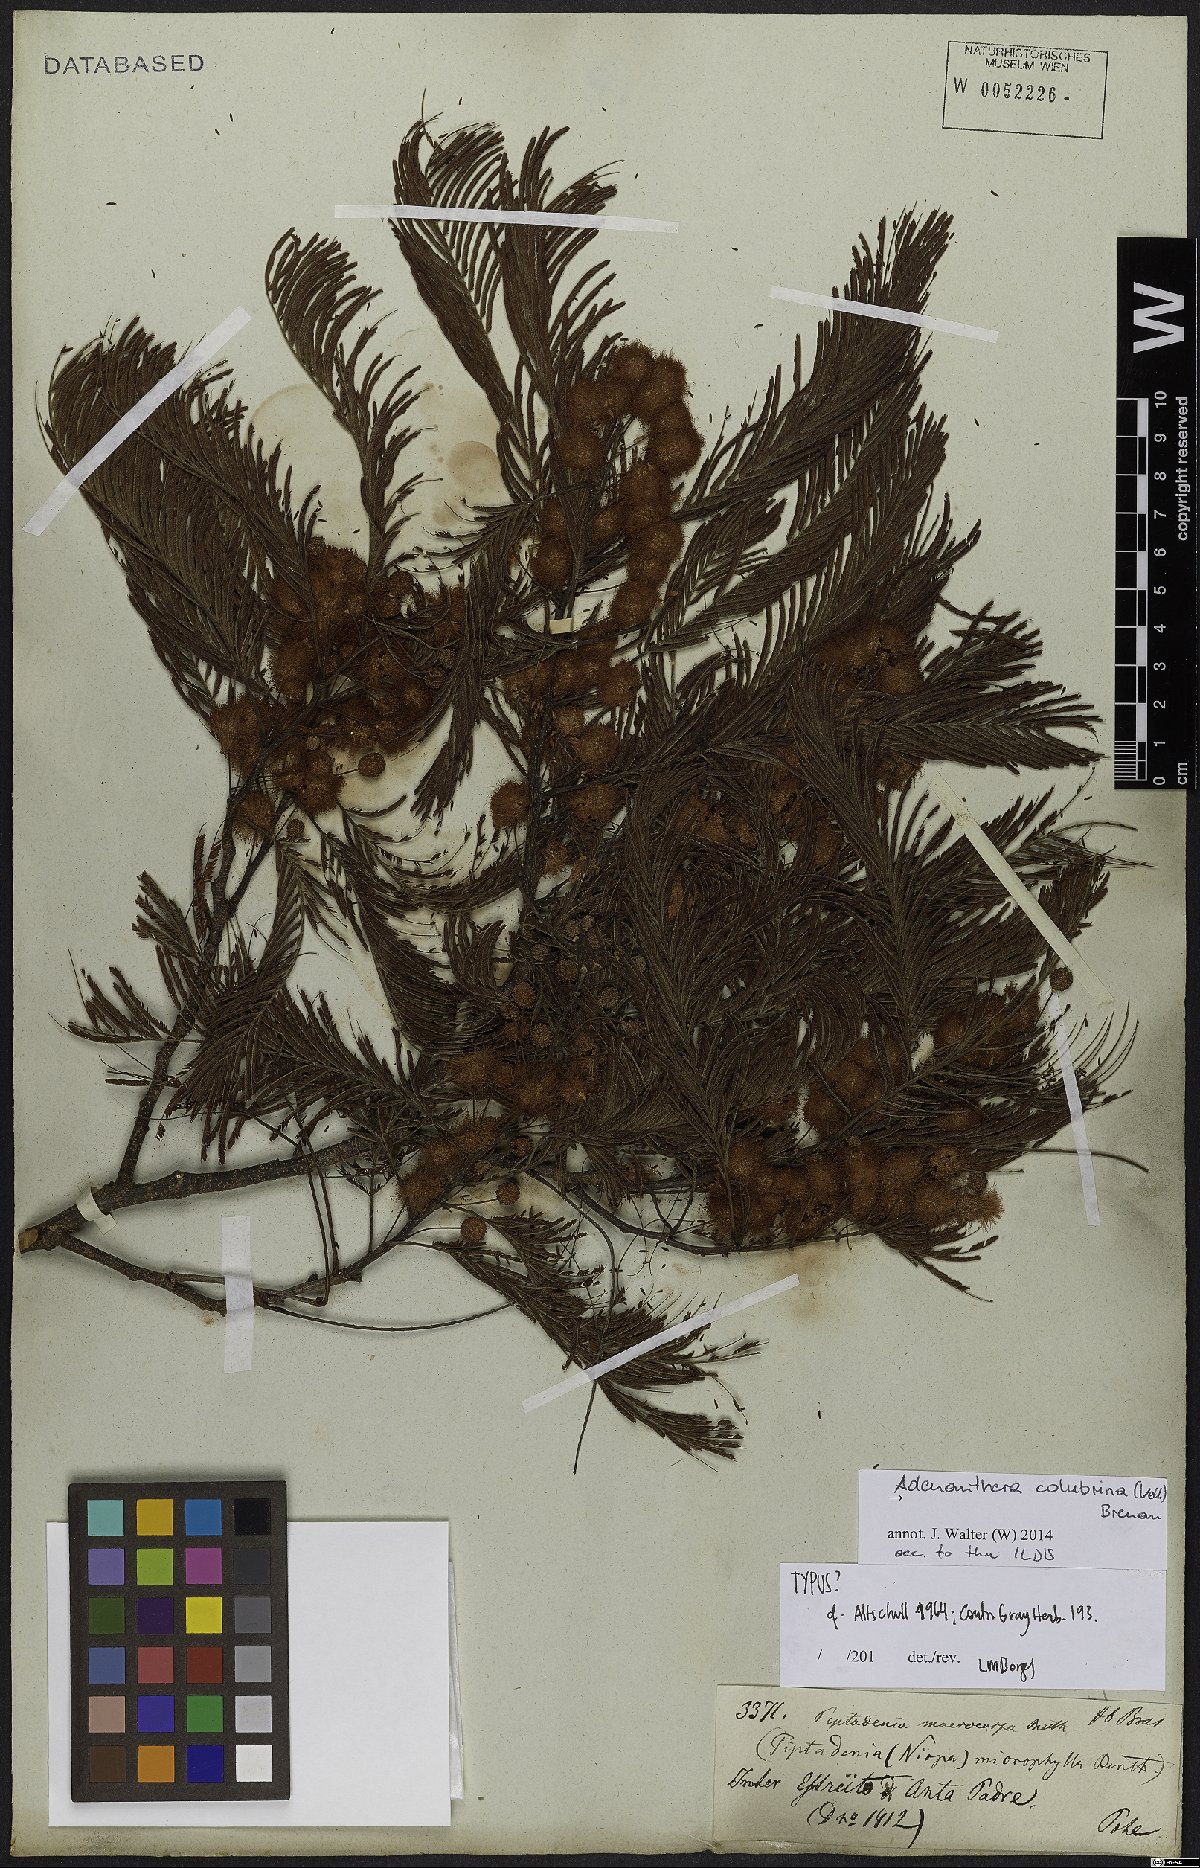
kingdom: Plantae
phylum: Tracheophyta
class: Magnoliopsida
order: Fabales
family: Fabaceae
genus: Anadenanthera
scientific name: Anadenanthera colubrina
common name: Curupay
